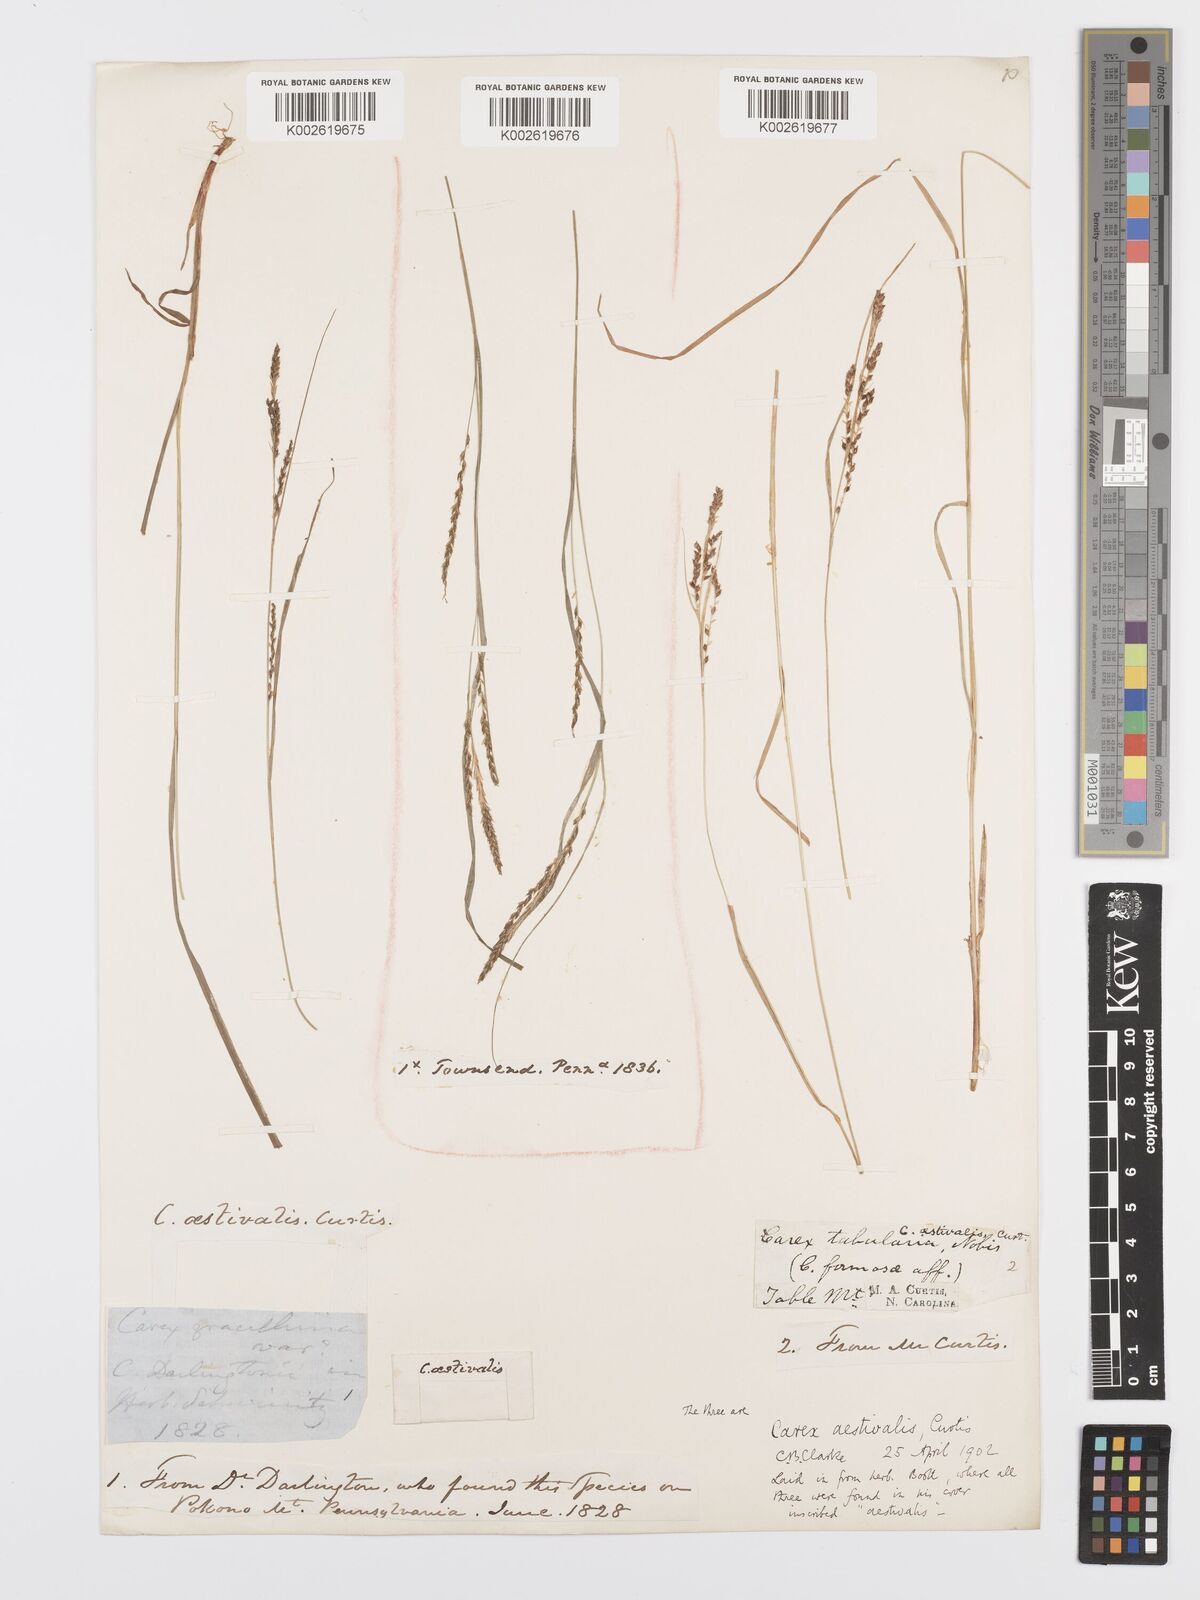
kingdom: Plantae
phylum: Tracheophyta
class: Liliopsida
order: Poales
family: Cyperaceae
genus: Carex
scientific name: Carex aestivalis
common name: Summer sedge
